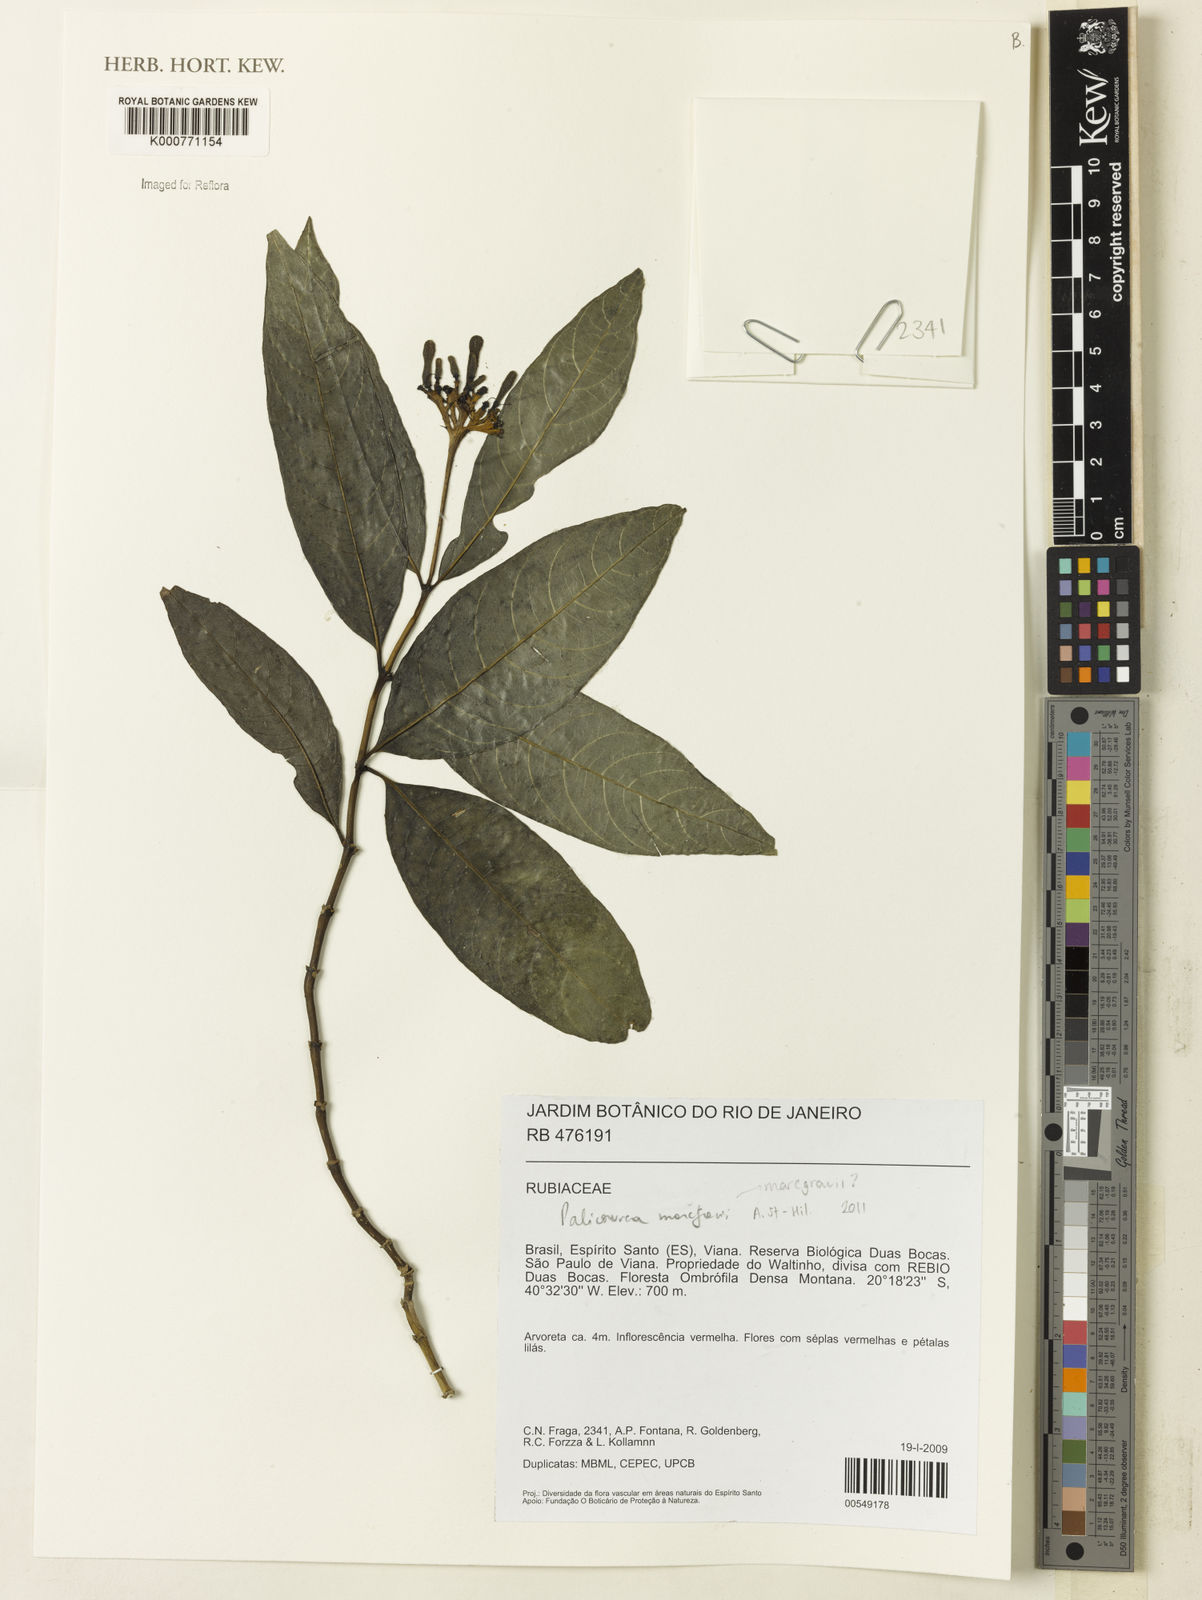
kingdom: Plantae
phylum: Tracheophyta
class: Magnoliopsida
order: Gentianales
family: Rubiaceae
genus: Palicourea
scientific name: Palicourea marcgravii
